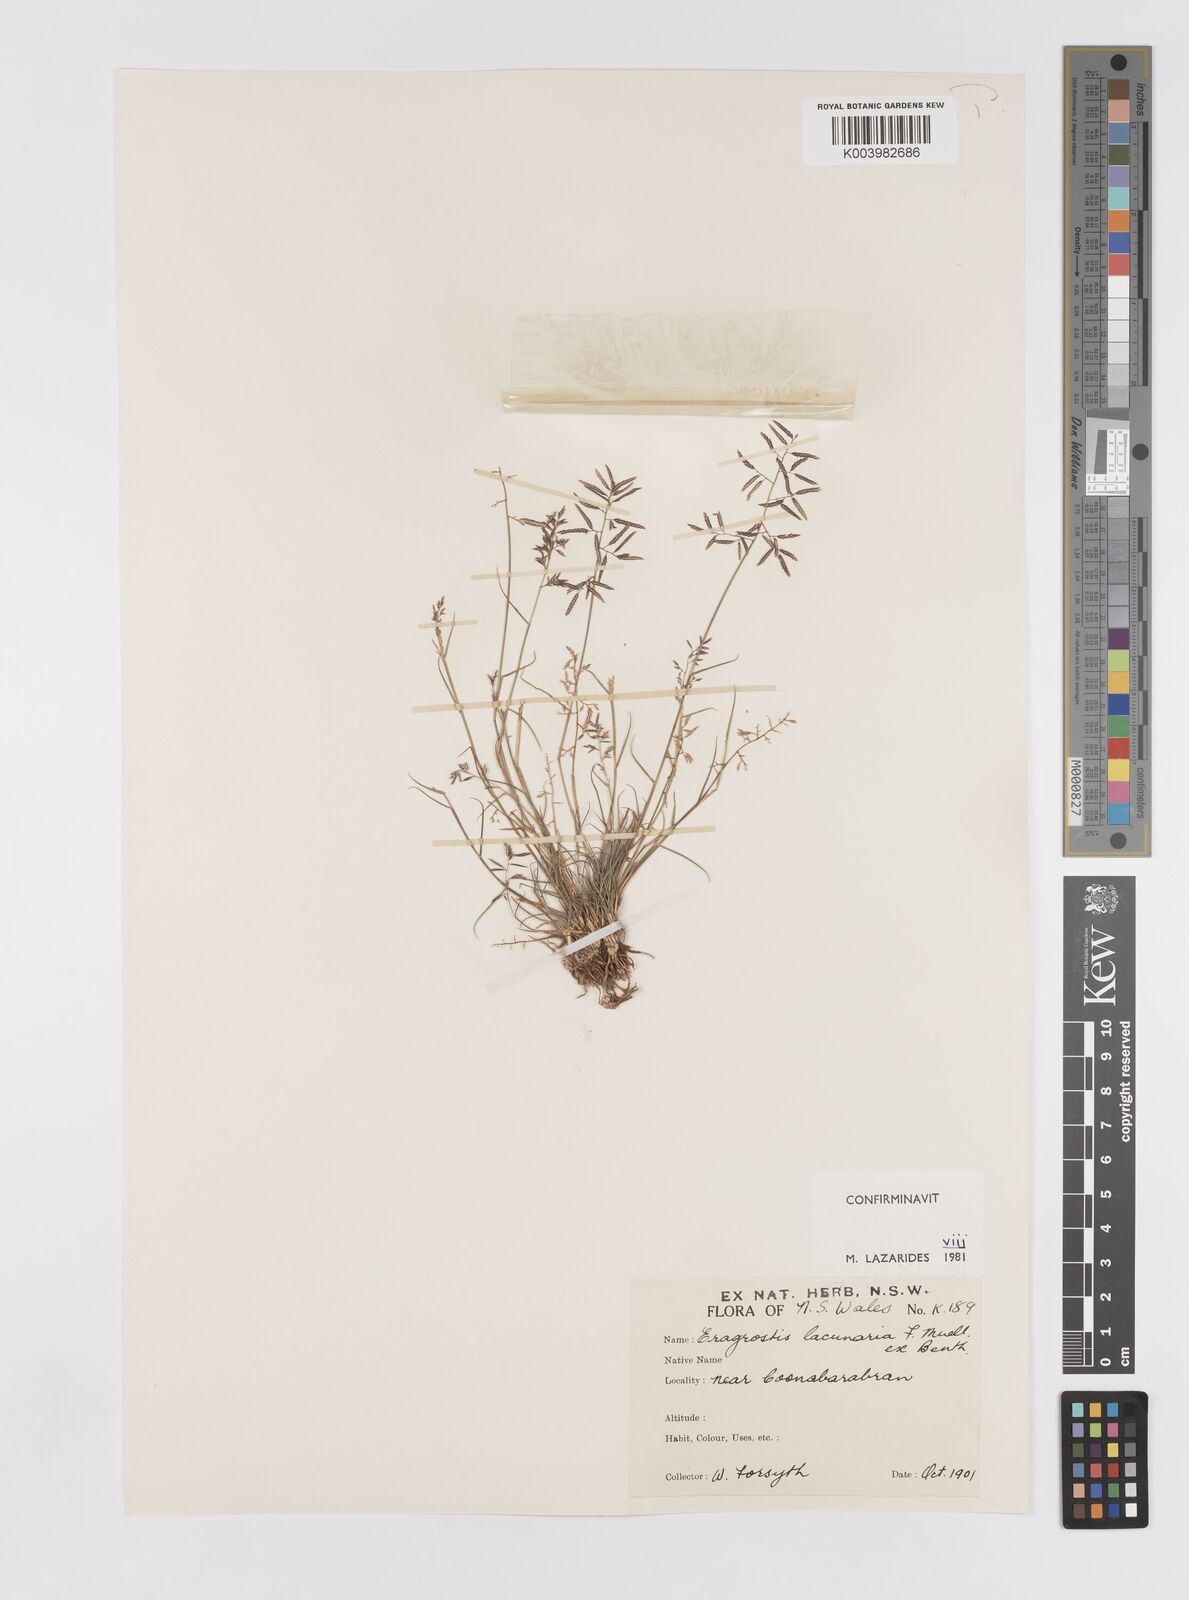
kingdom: Plantae
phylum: Tracheophyta
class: Liliopsida
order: Poales
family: Poaceae
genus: Eragrostis
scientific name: Eragrostis lacunaria
